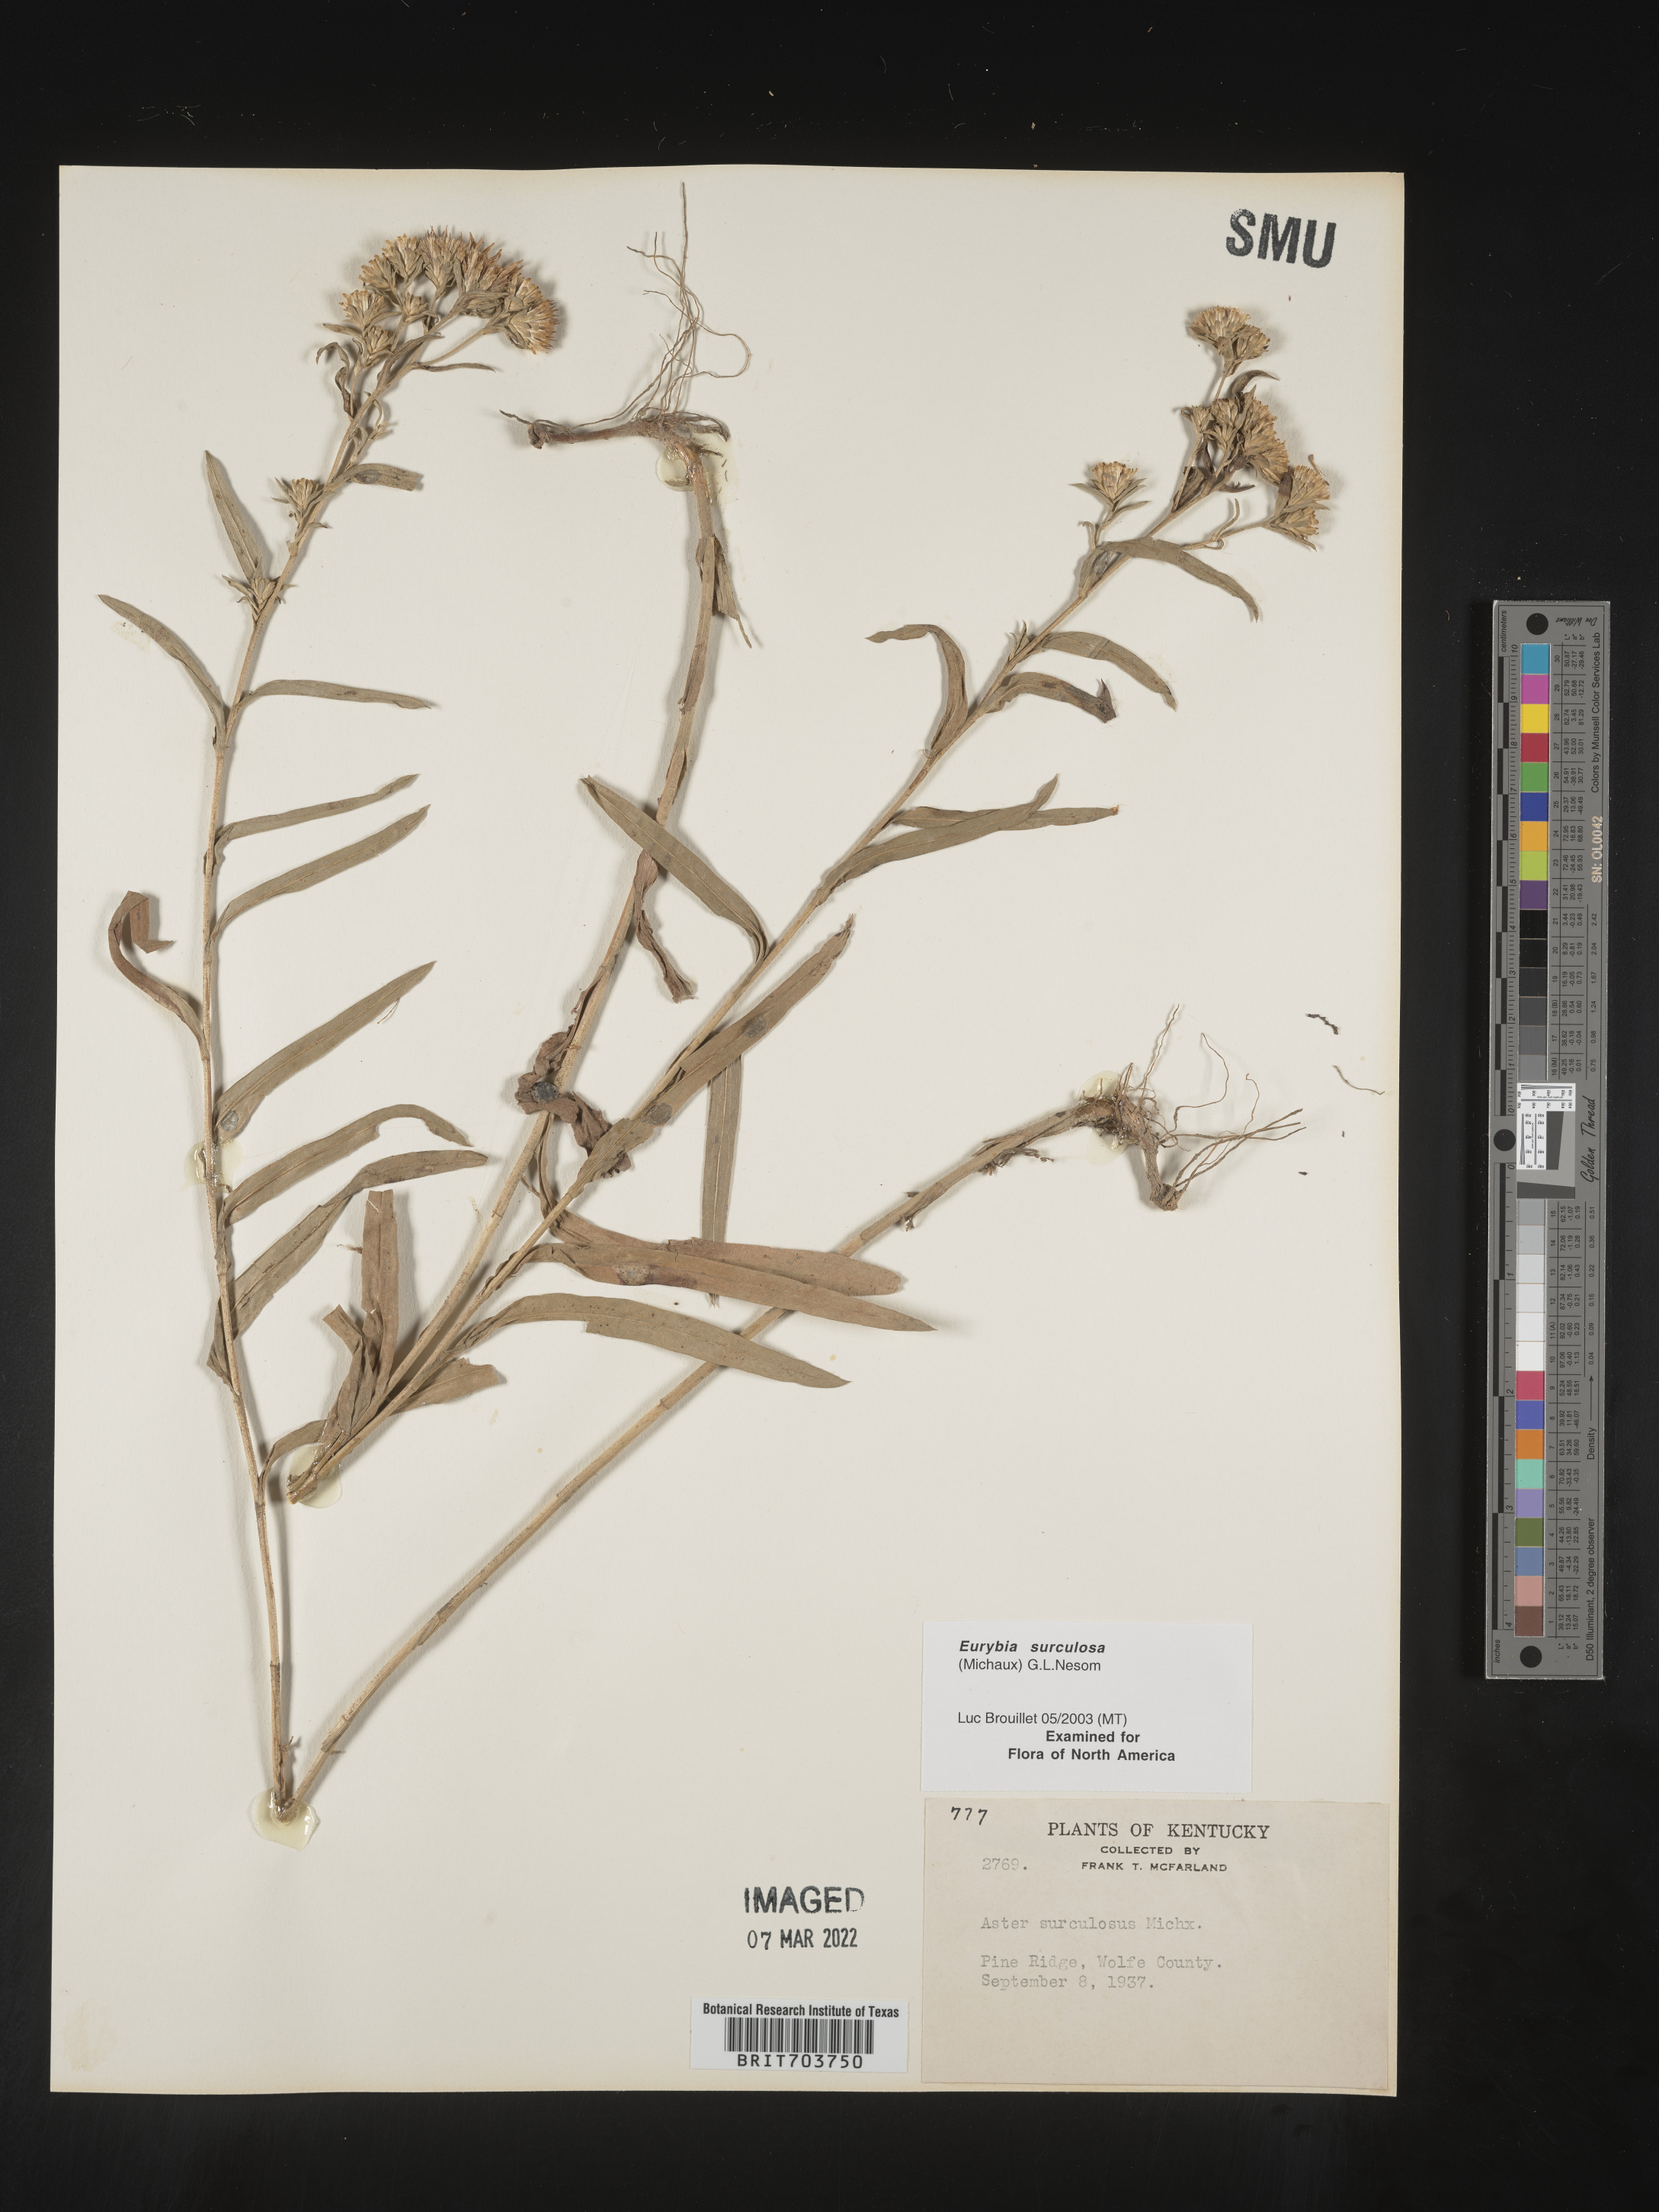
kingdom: Plantae
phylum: Tracheophyta
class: Magnoliopsida
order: Asterales
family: Asteraceae
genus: Eurybia
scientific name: Eurybia surculosa
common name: Creeping aster
